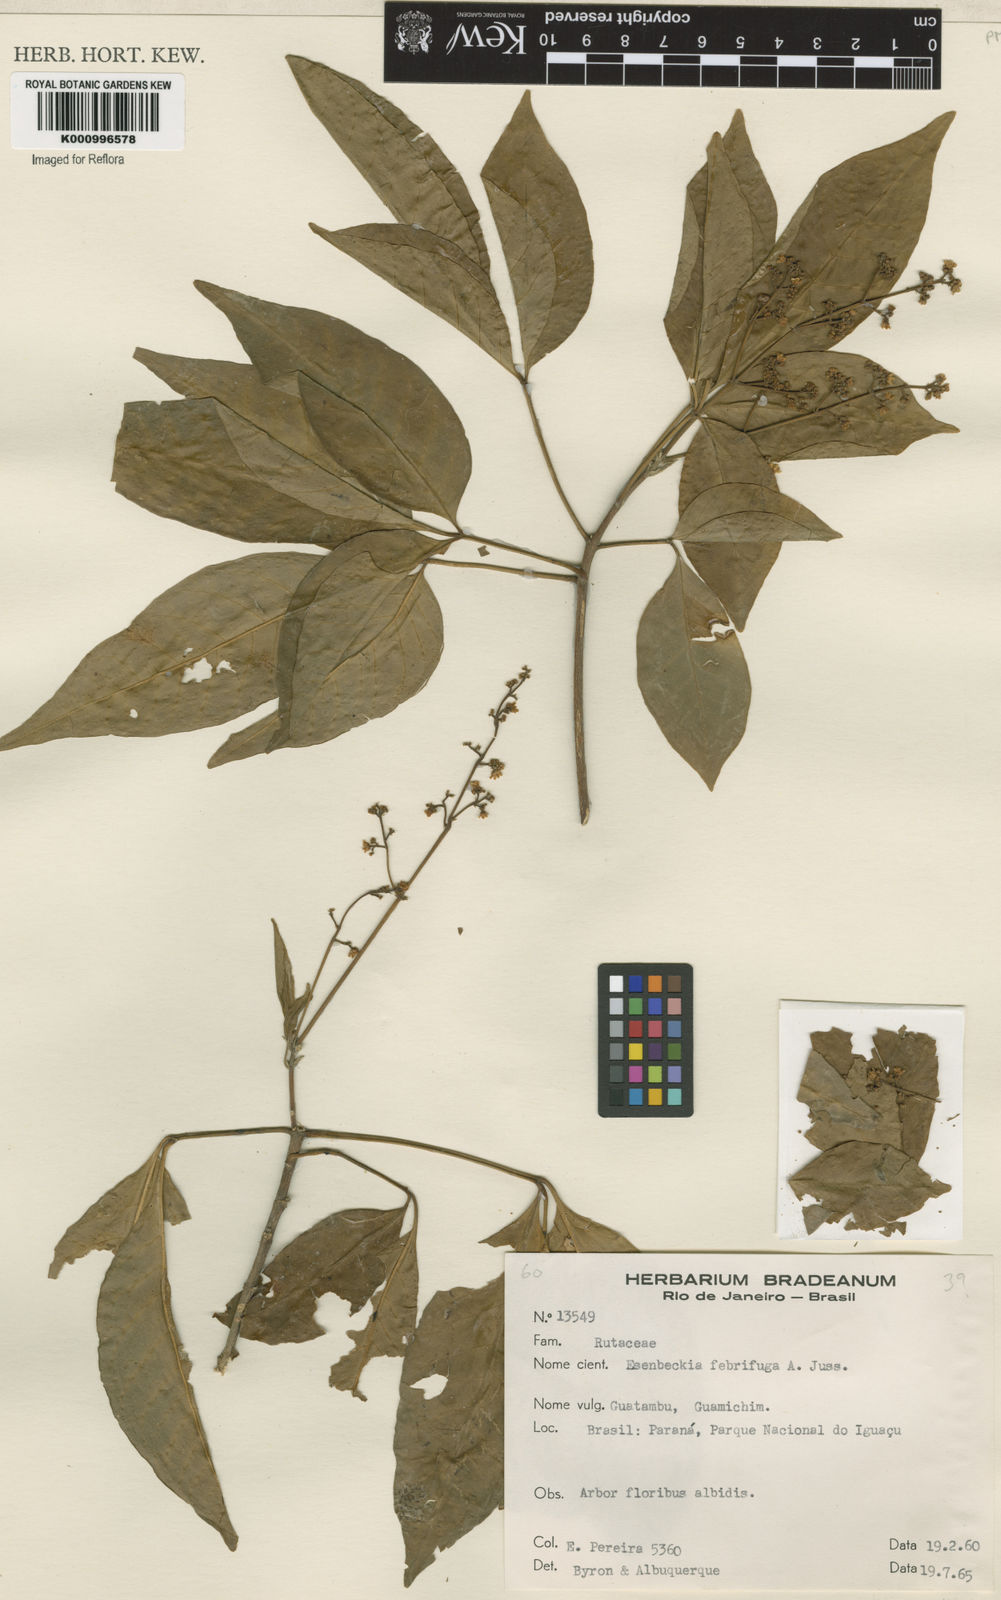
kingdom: Plantae
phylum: Tracheophyta
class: Magnoliopsida
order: Sapindales
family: Rutaceae
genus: Esenbeckia
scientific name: Esenbeckia febrifuga
